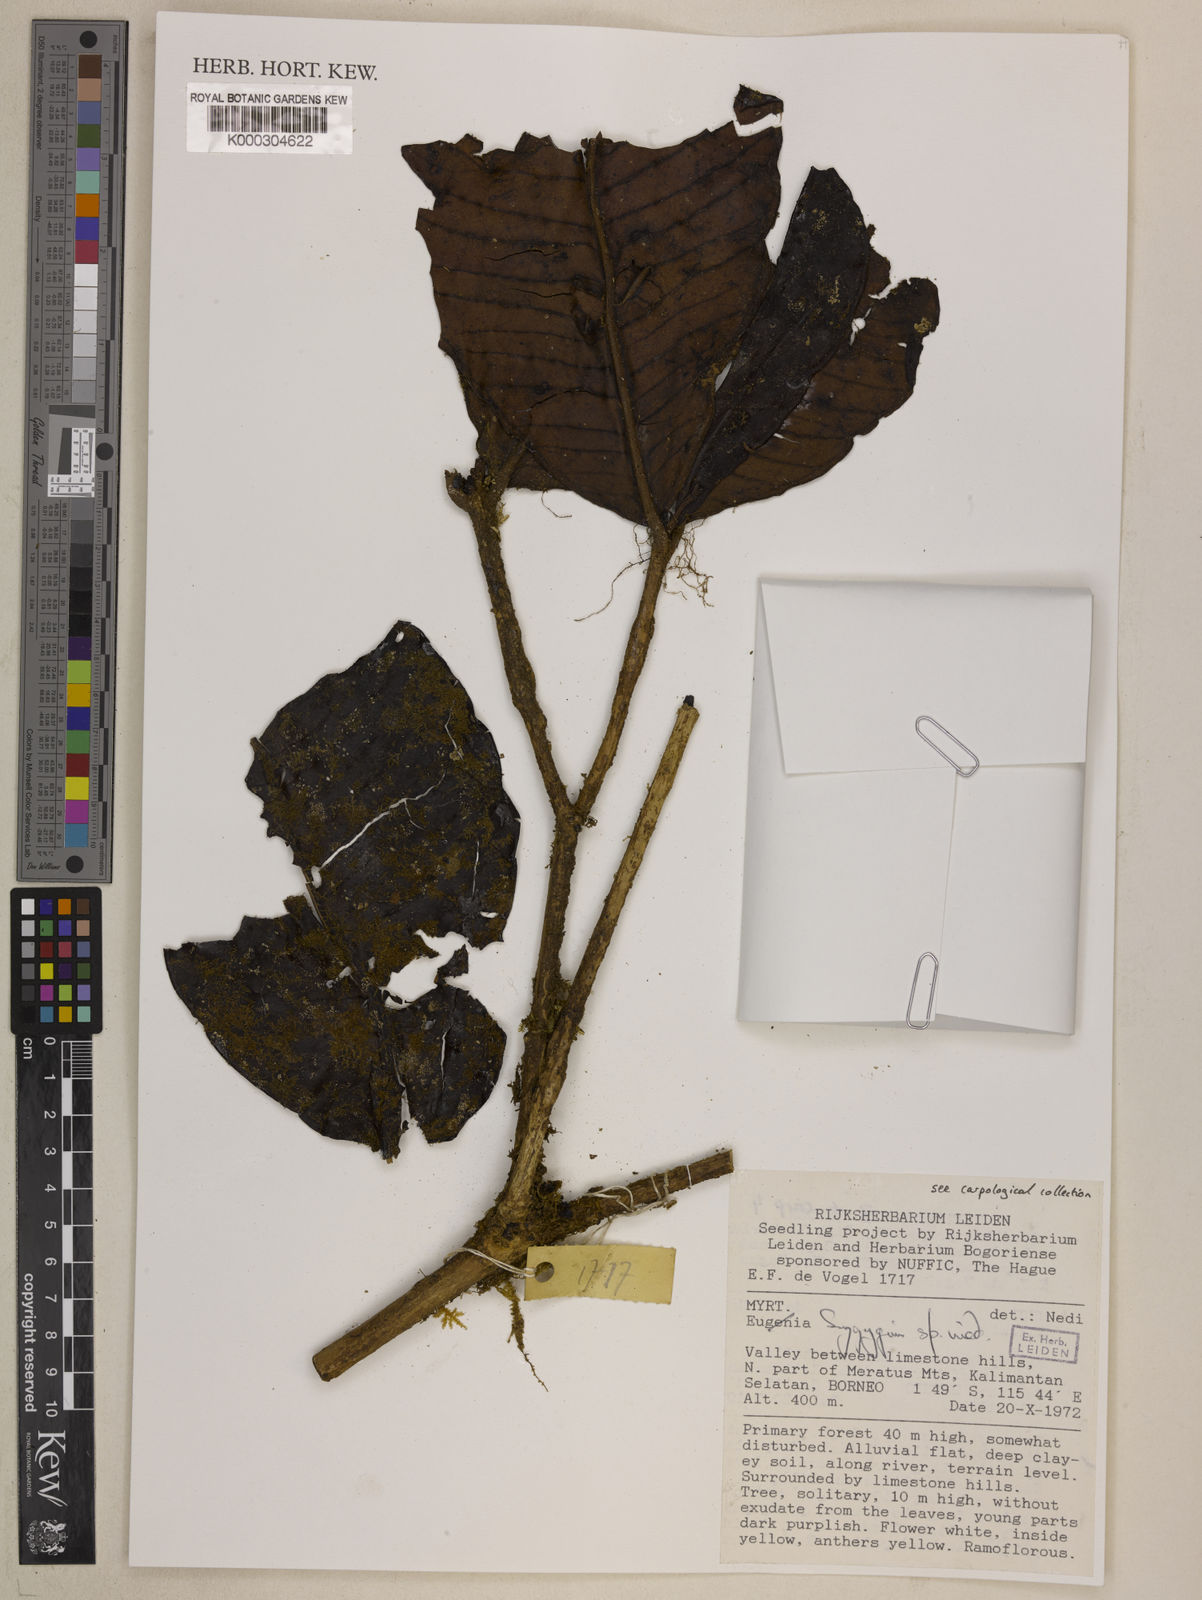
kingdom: Plantae
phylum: Tracheophyta
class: Magnoliopsida
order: Myrtales
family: Myrtaceae
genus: Syzygium
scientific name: Syzygium
